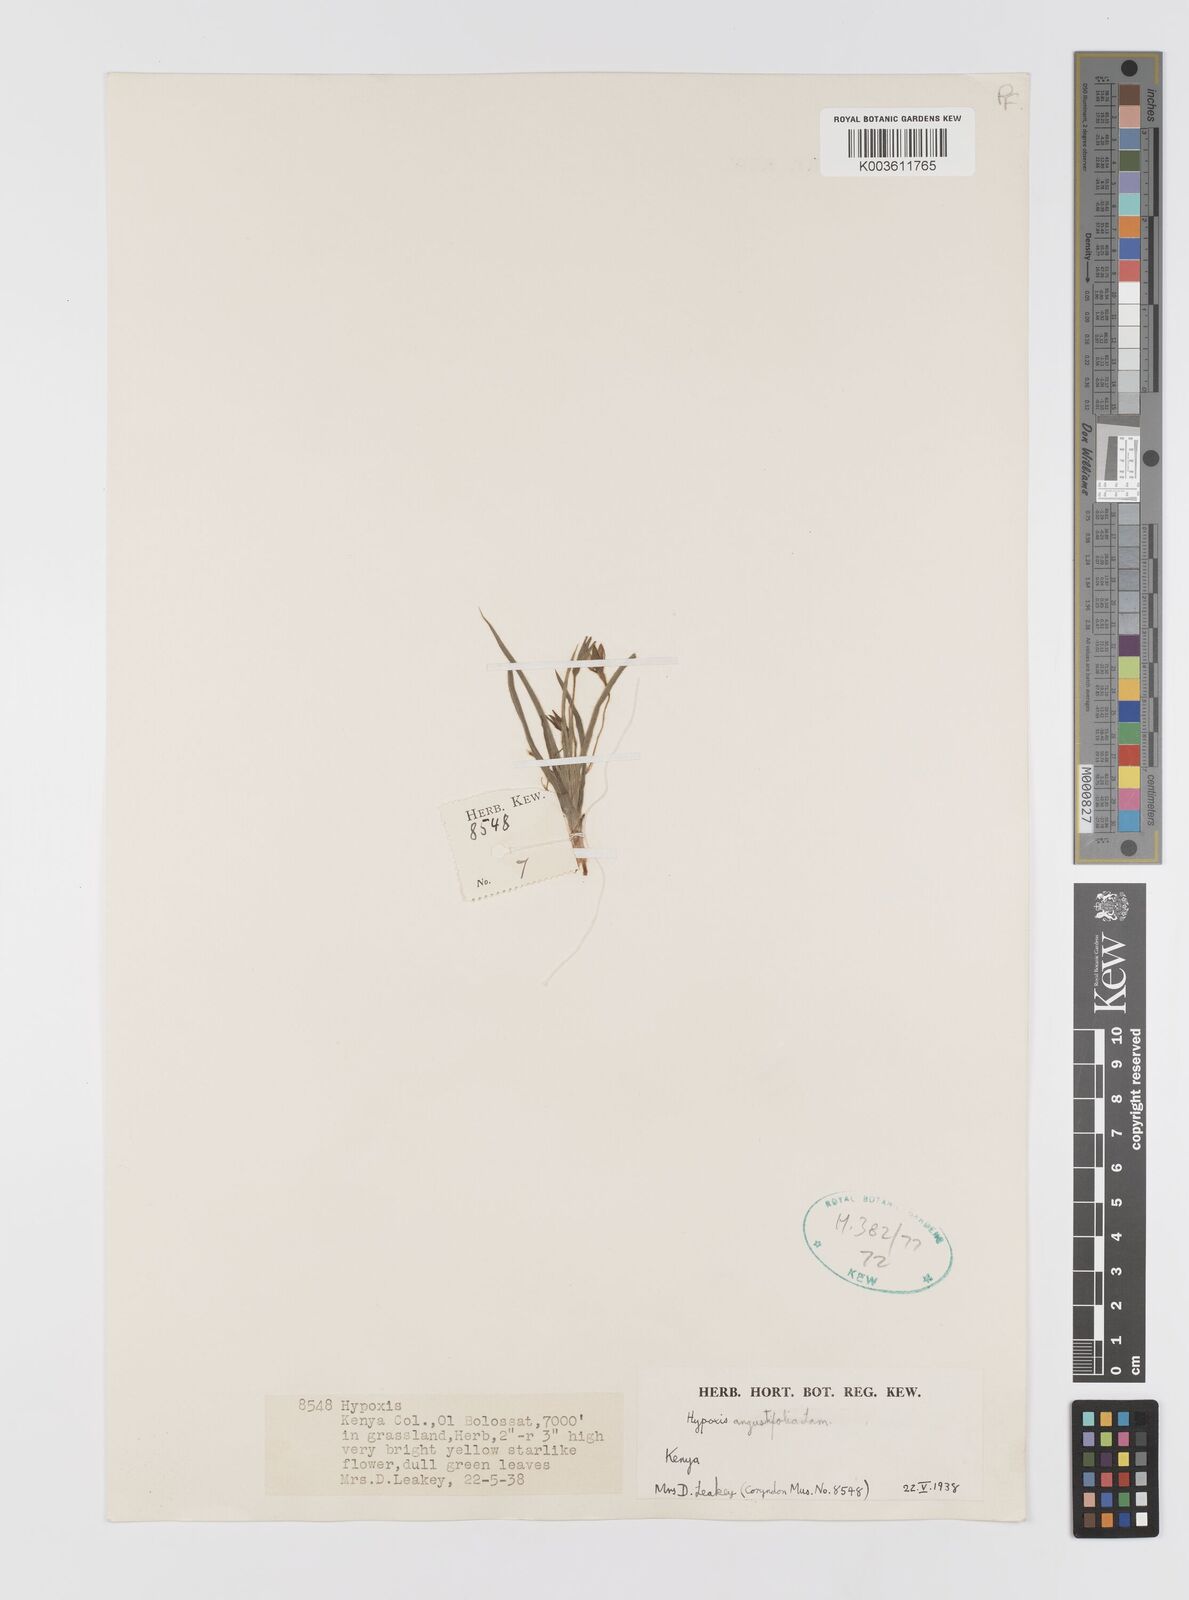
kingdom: Plantae
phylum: Tracheophyta
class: Liliopsida
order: Asparagales
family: Hypoxidaceae
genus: Hypoxis
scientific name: Hypoxis angustifolia
